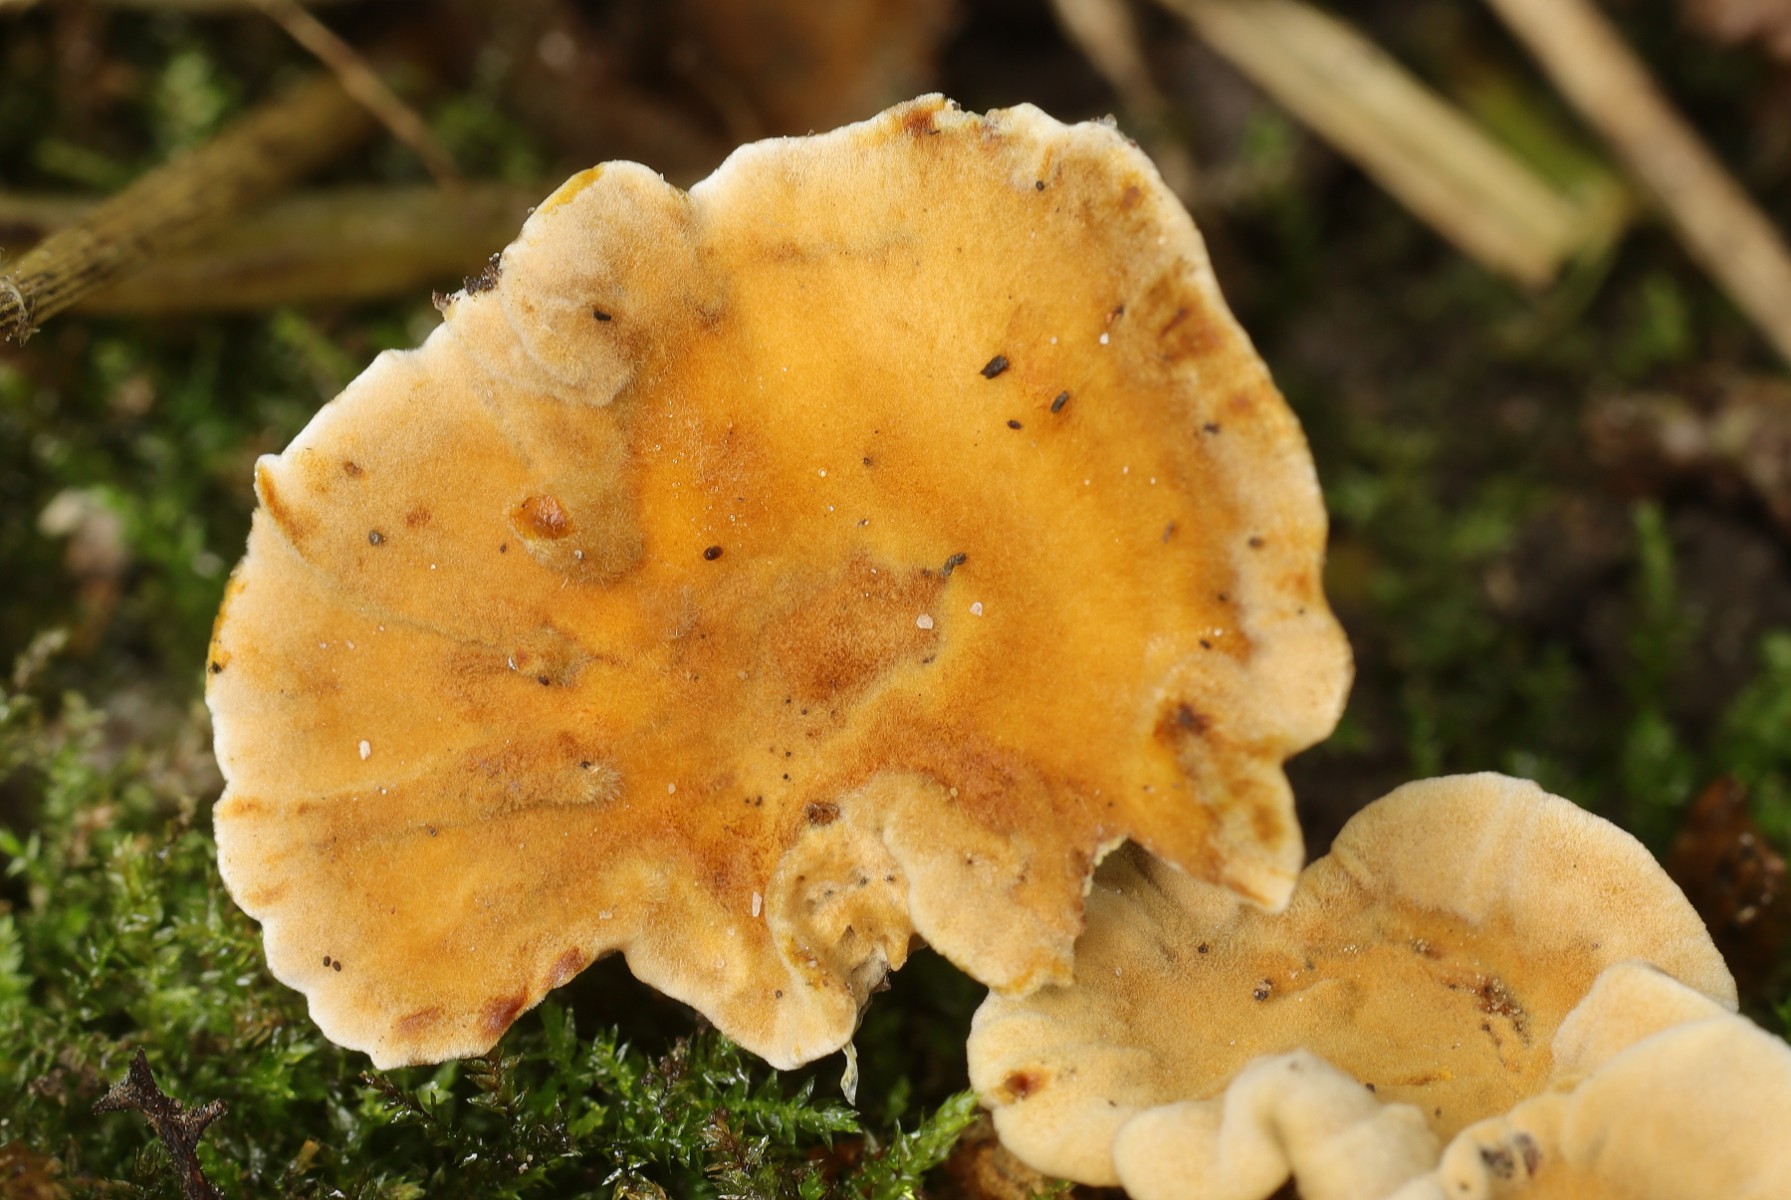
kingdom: Fungi
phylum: Basidiomycota
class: Agaricomycetes
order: Hymenochaetales
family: Hymenochaetaceae
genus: Coltricia
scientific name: Coltricia confluens
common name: park-sandporesvamp
